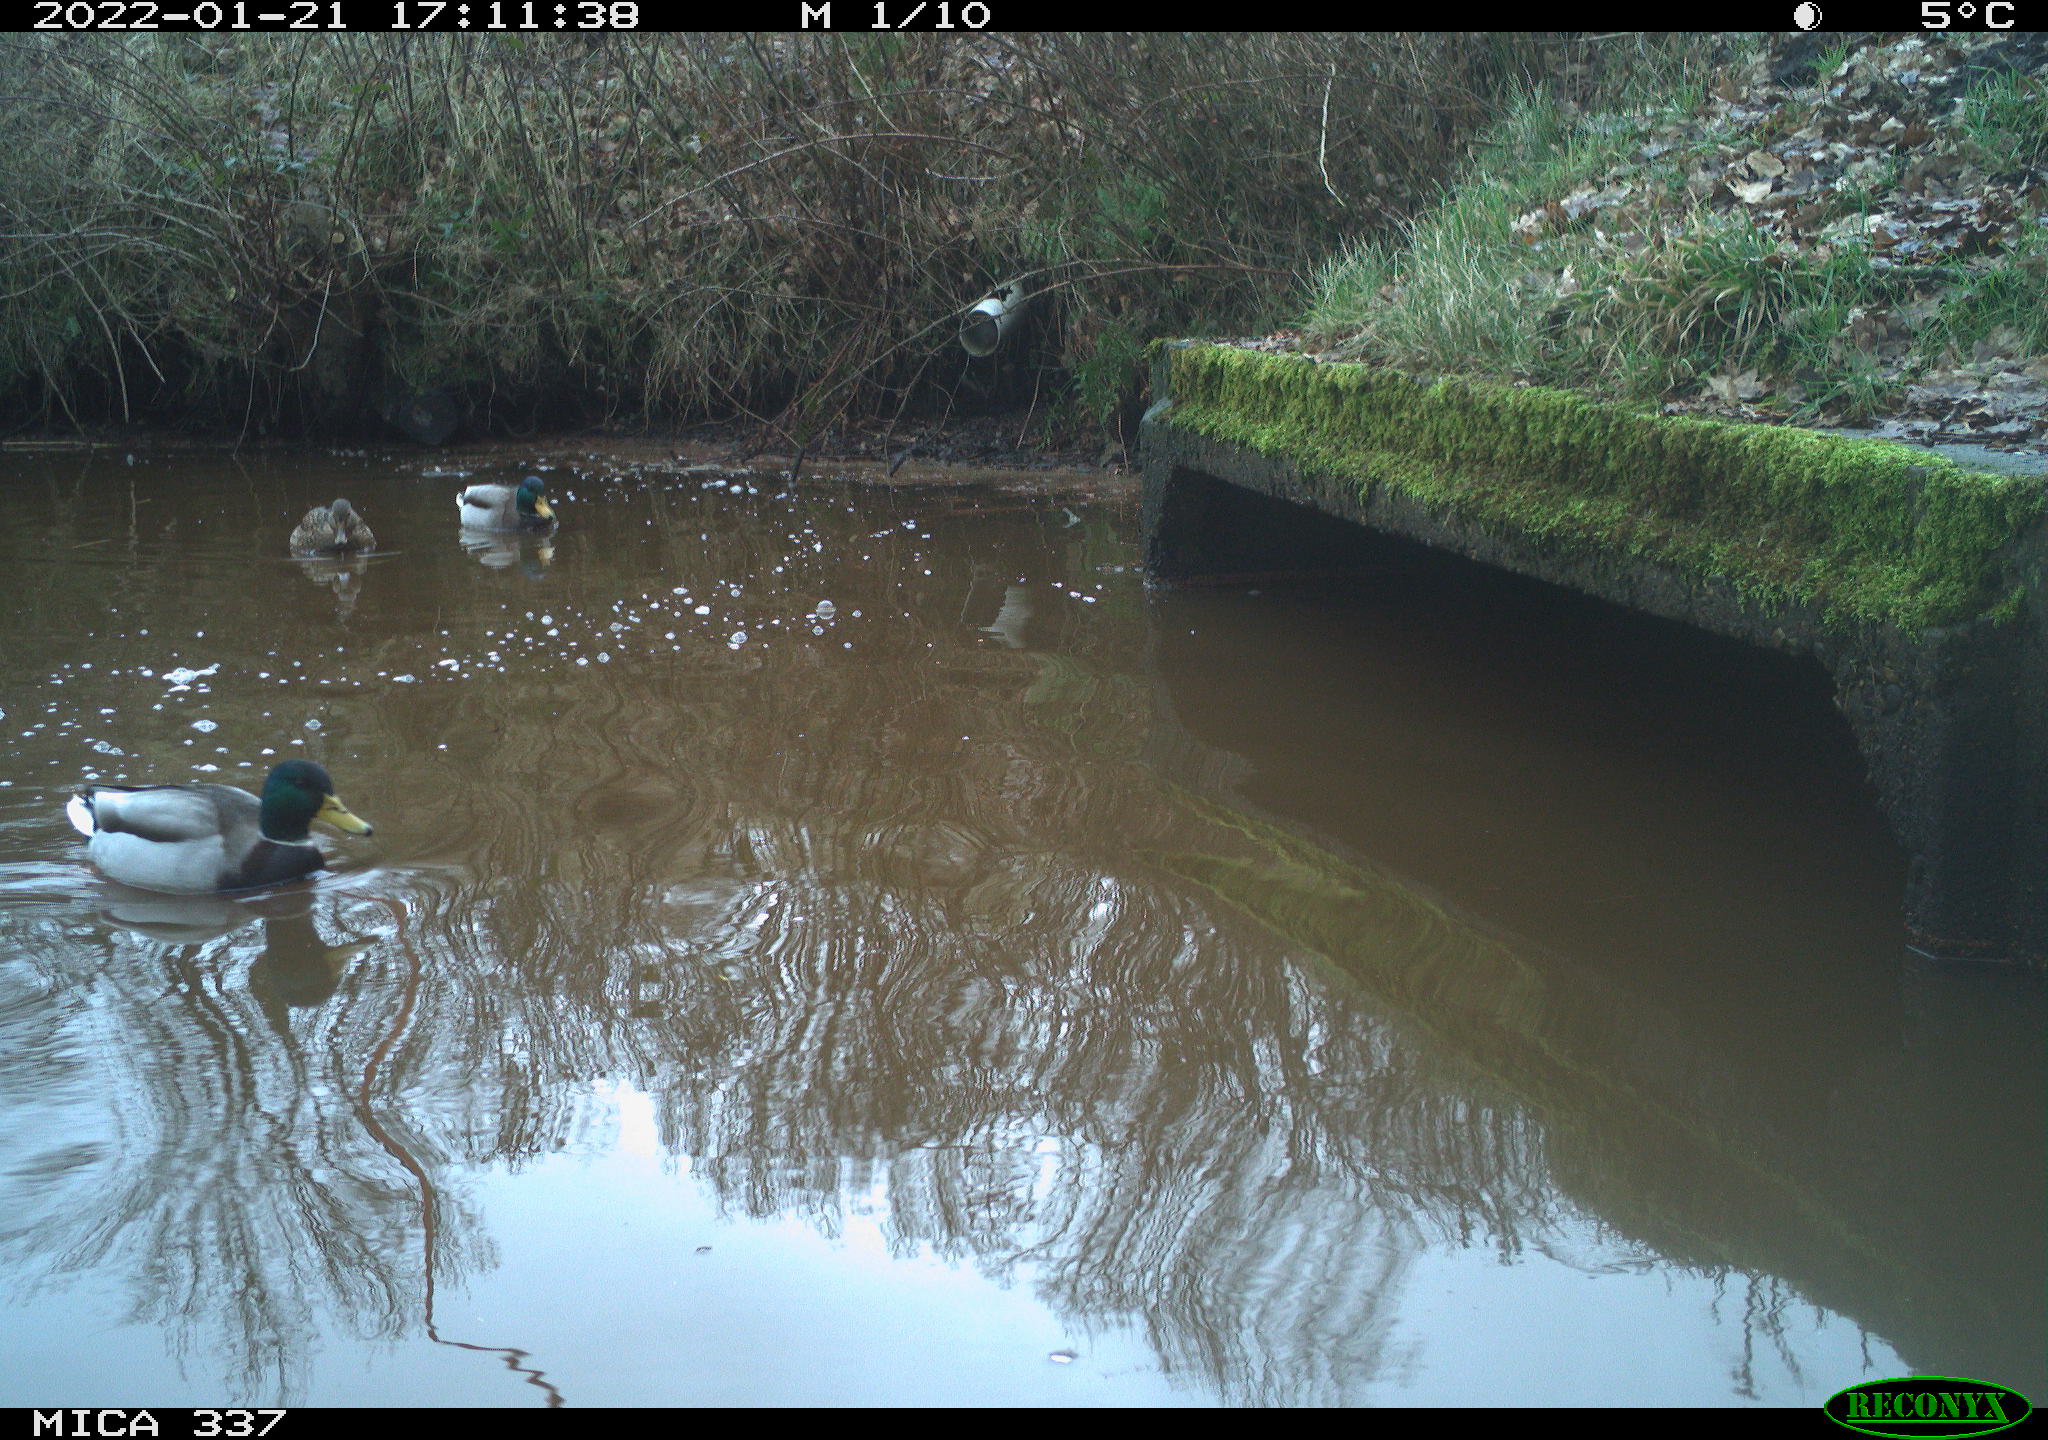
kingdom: Animalia
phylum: Chordata
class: Aves
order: Anseriformes
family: Anatidae
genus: Anas
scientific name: Anas platyrhynchos
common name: Mallard
